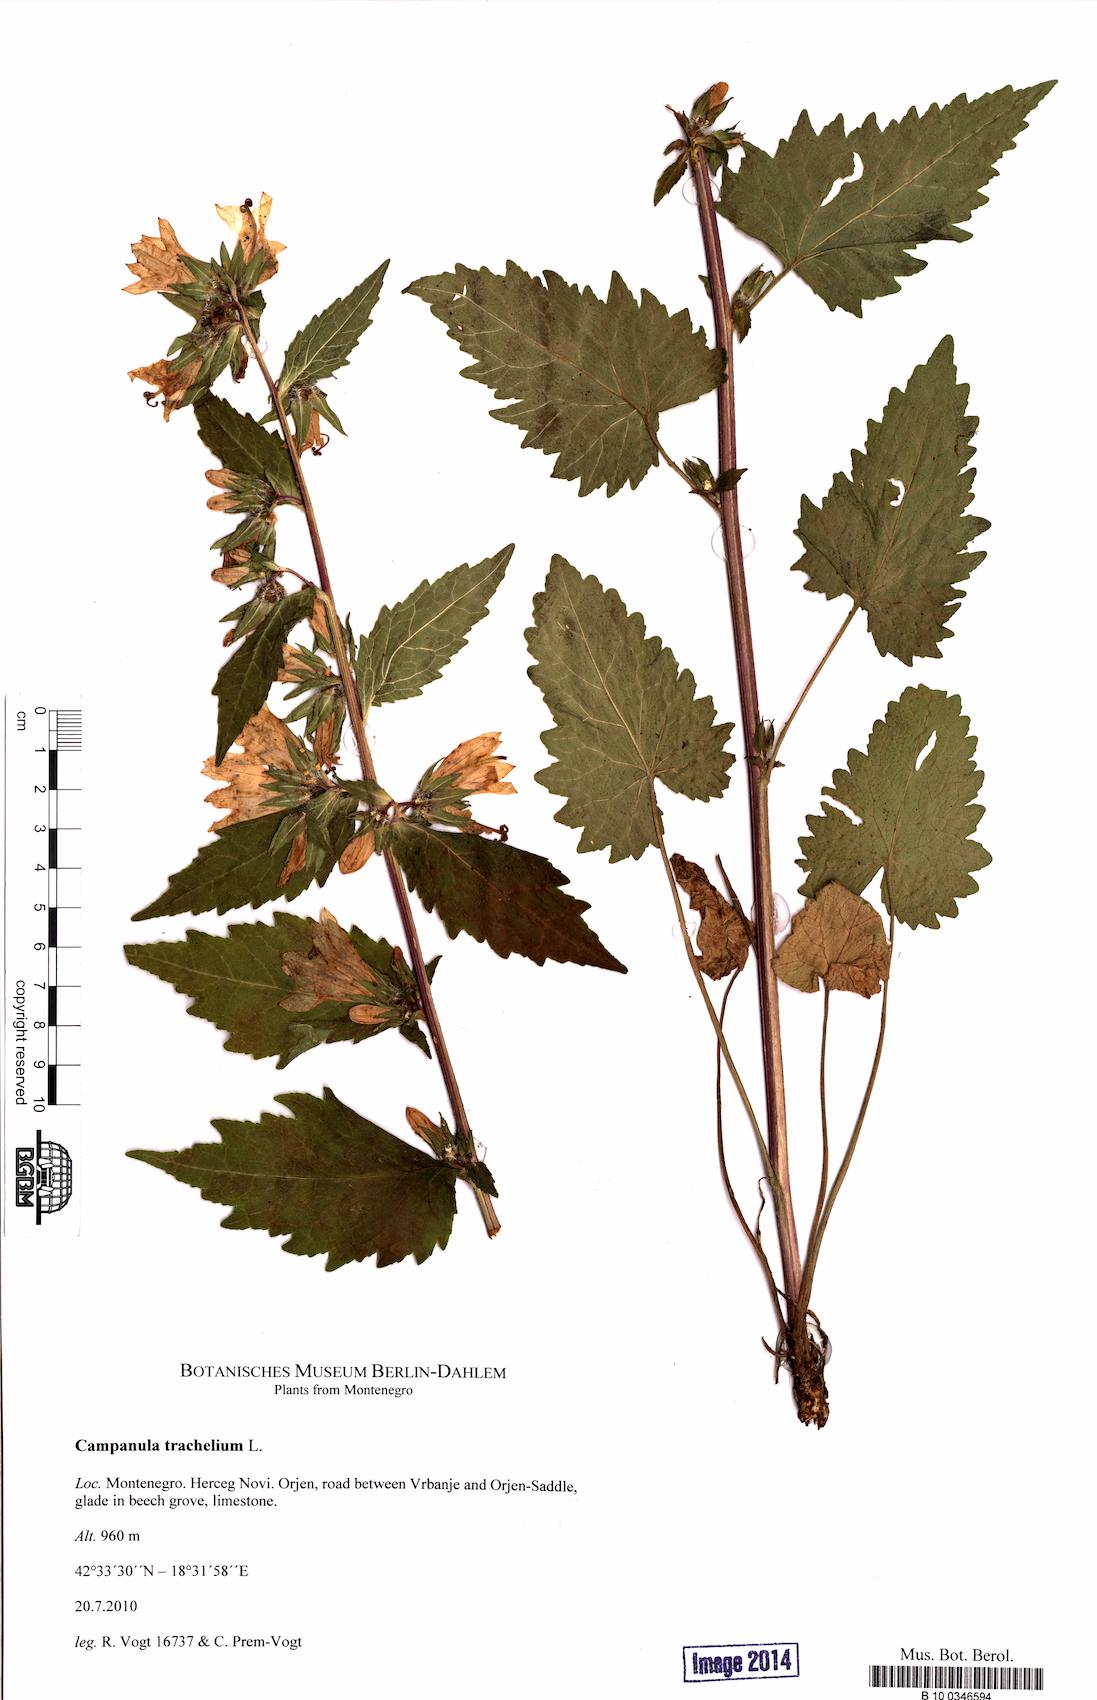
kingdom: Plantae
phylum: Tracheophyta
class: Magnoliopsida
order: Asterales
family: Campanulaceae
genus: Campanula
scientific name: Campanula trachelium
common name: Nettle-leaved bellflower
